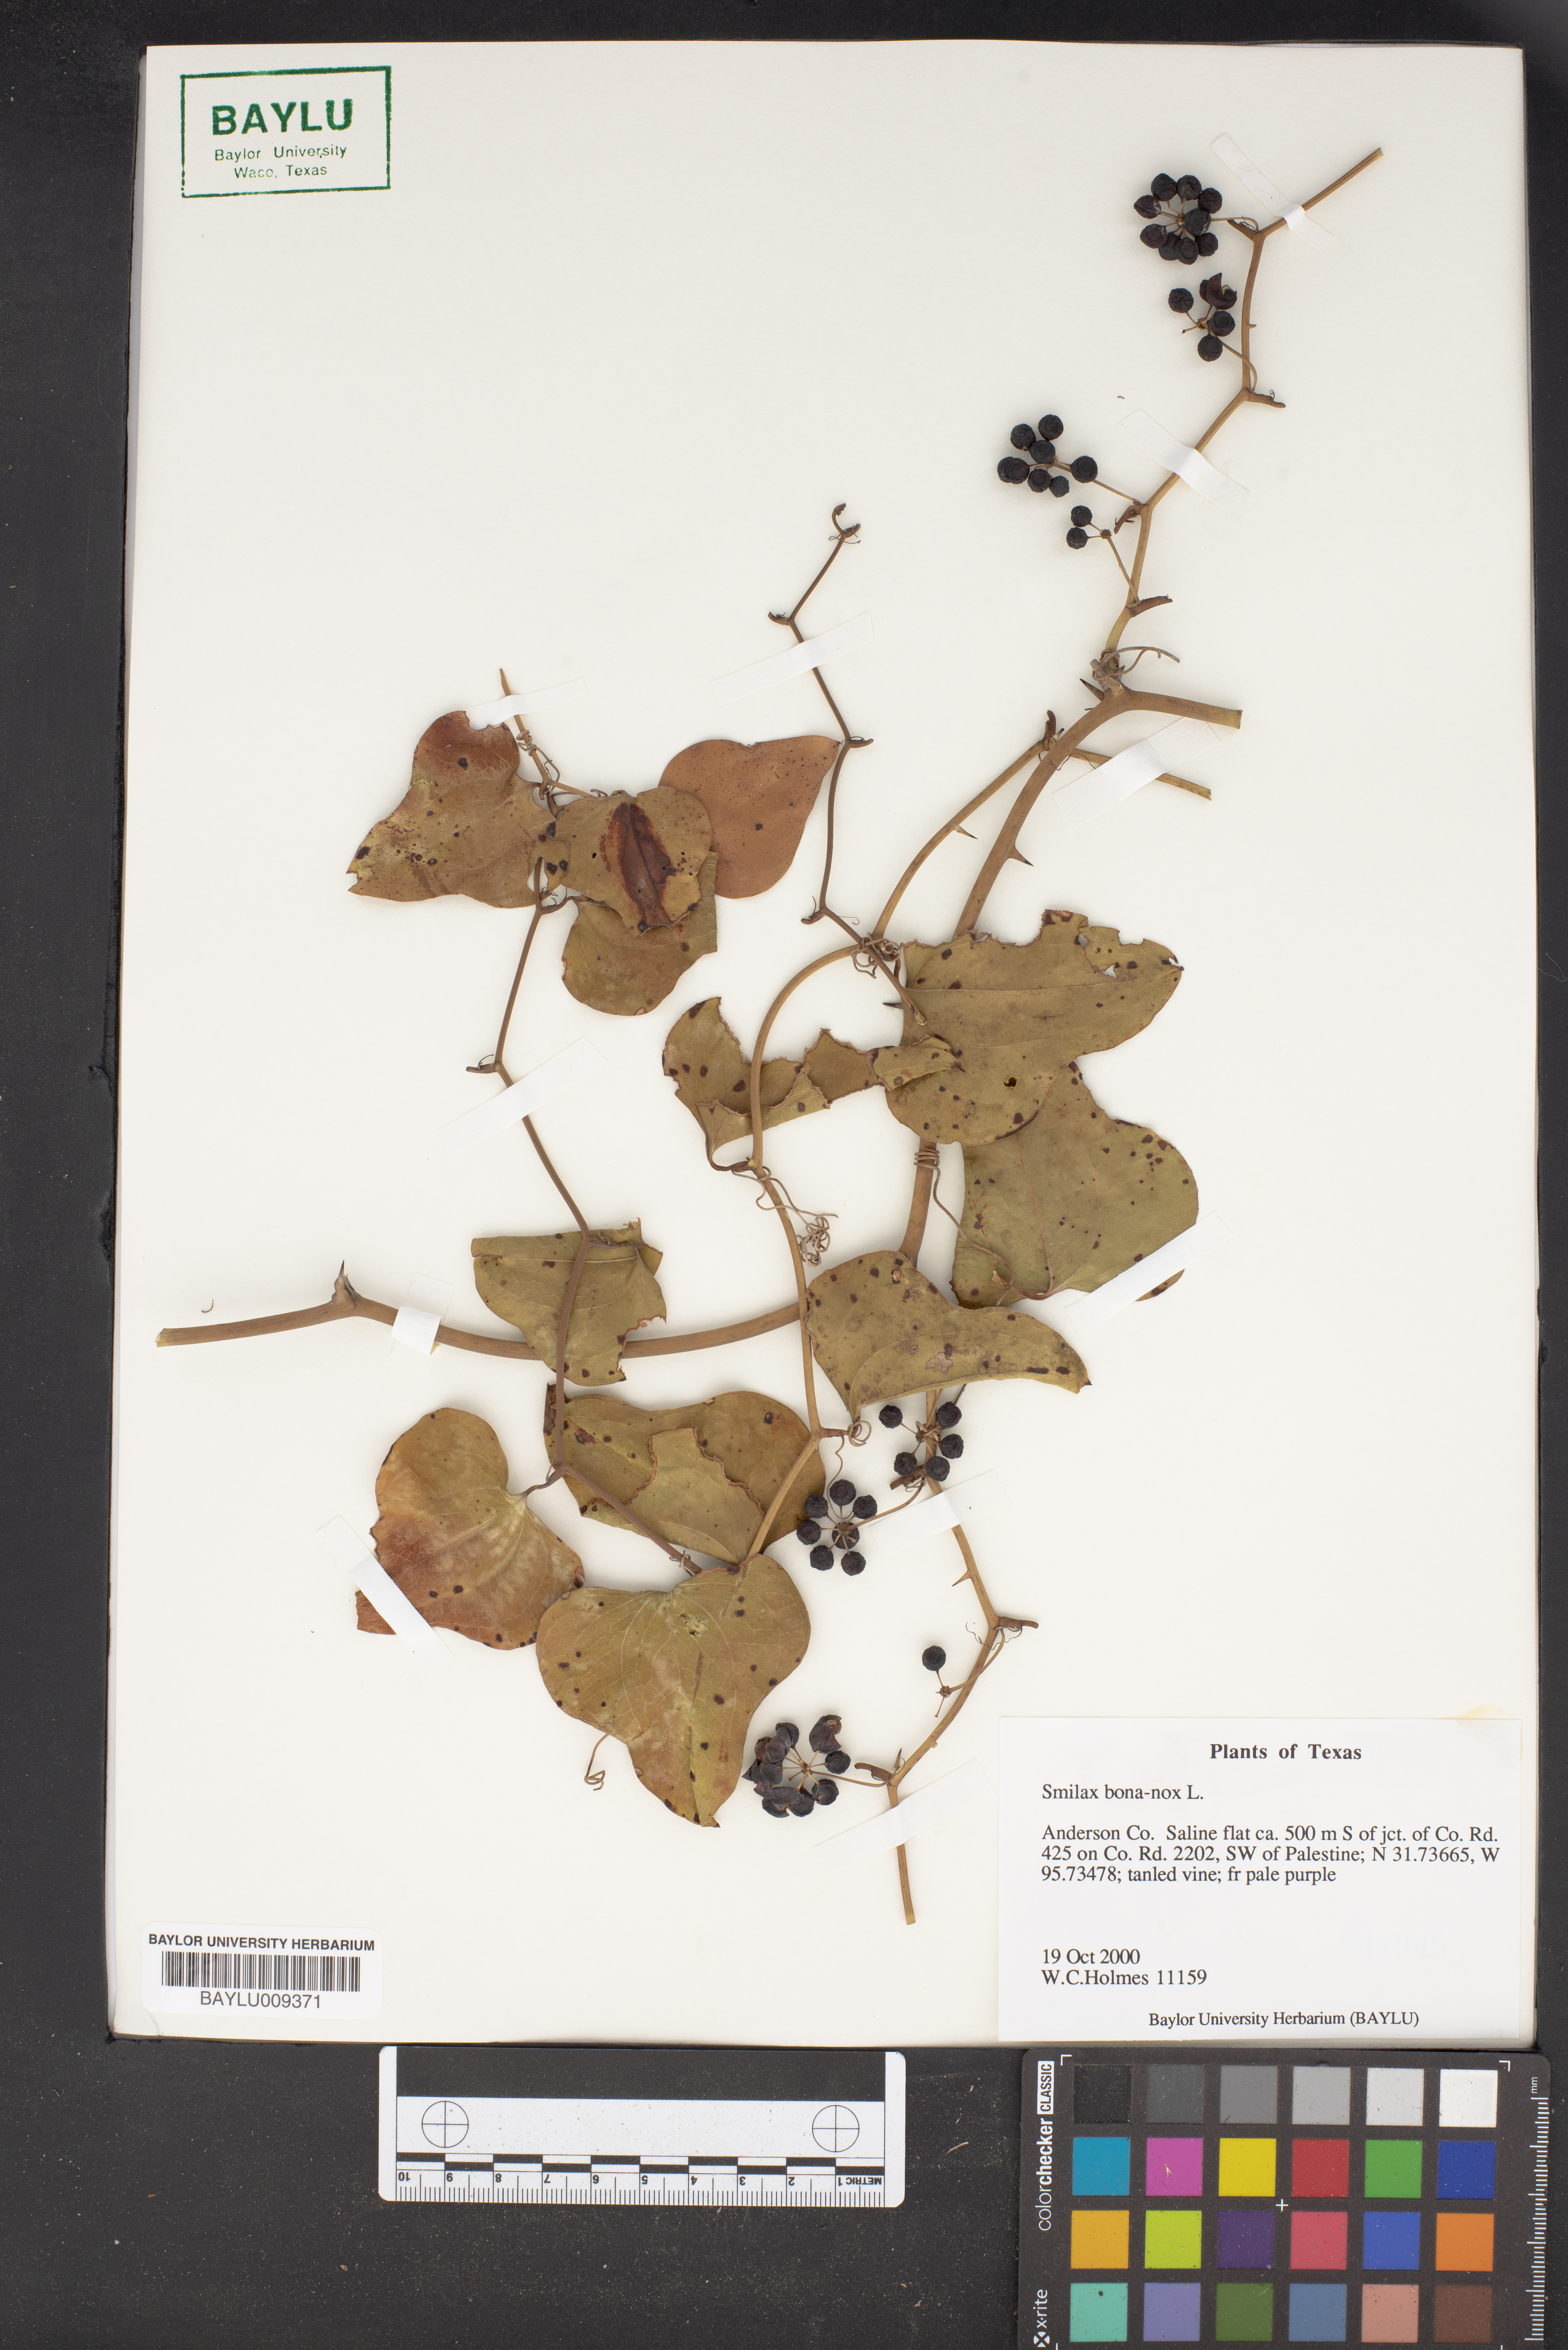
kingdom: Plantae
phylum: Tracheophyta
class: Liliopsida
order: Liliales
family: Smilacaceae
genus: Smilax
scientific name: Smilax bona-nox
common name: Catbrier
